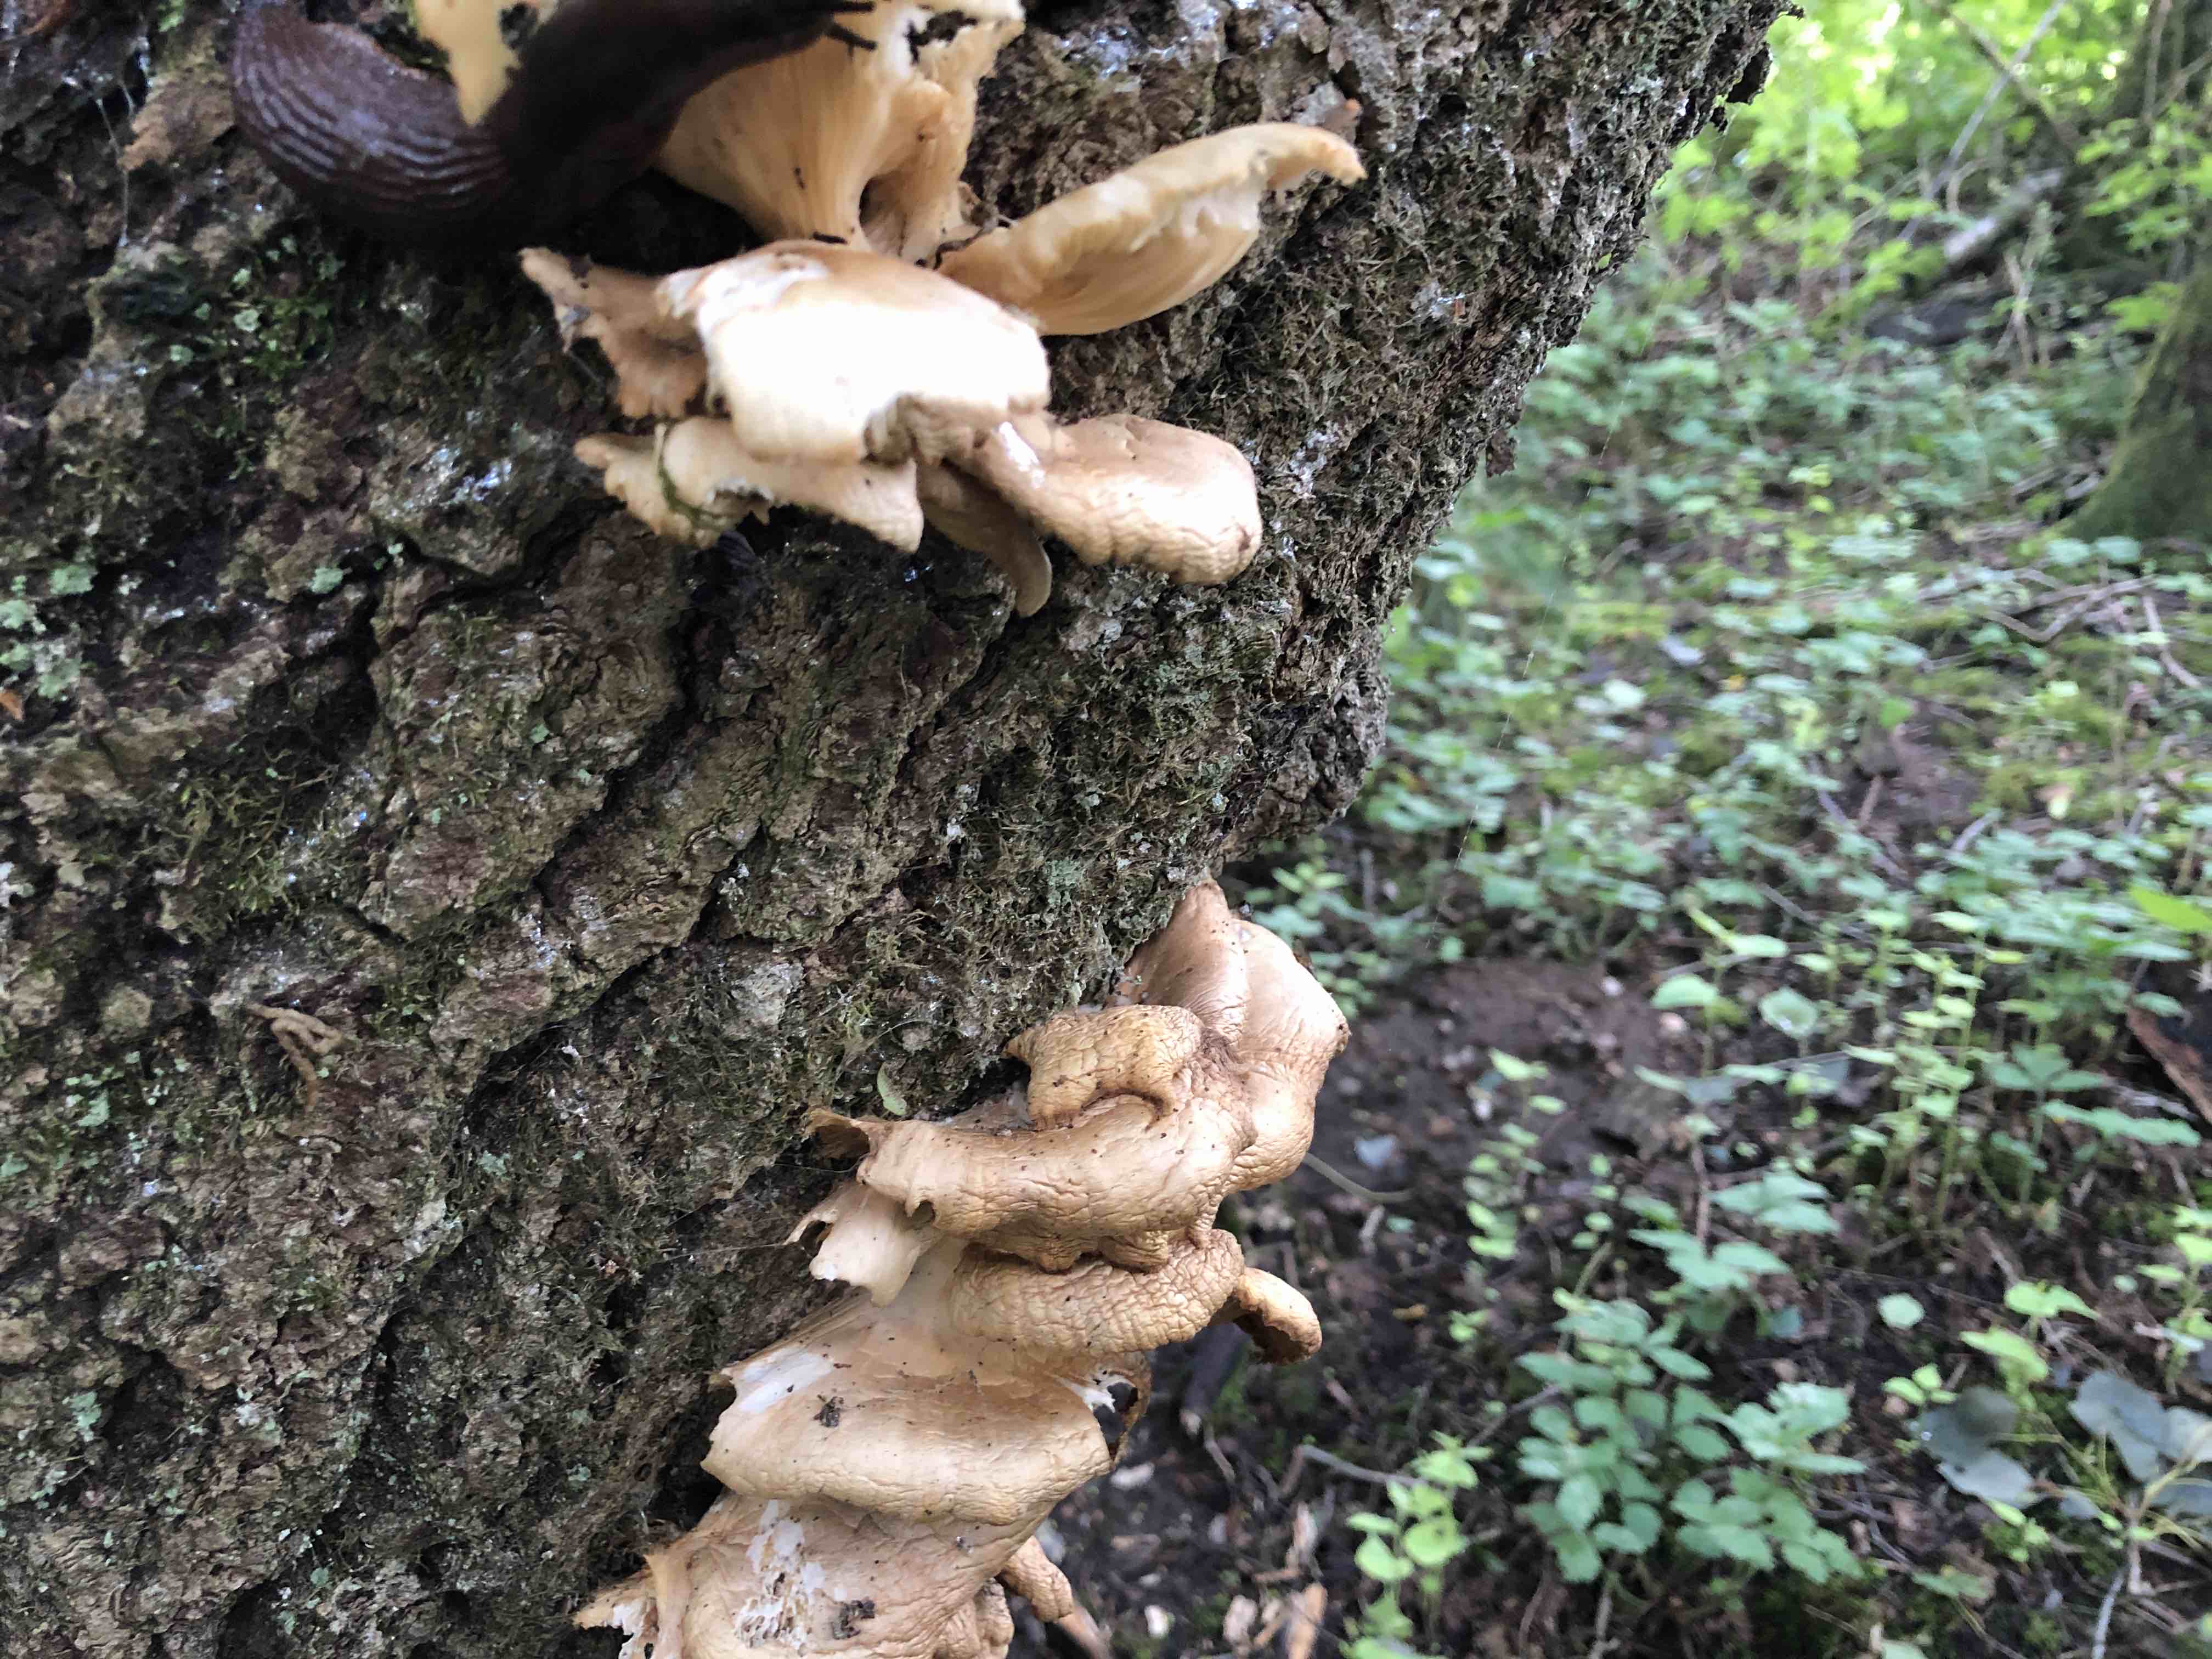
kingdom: Fungi
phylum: Basidiomycota
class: Agaricomycetes
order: Agaricales
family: Pleurotaceae
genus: Pleurotus
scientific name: Pleurotus pulmonarius
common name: sommer-østershat
